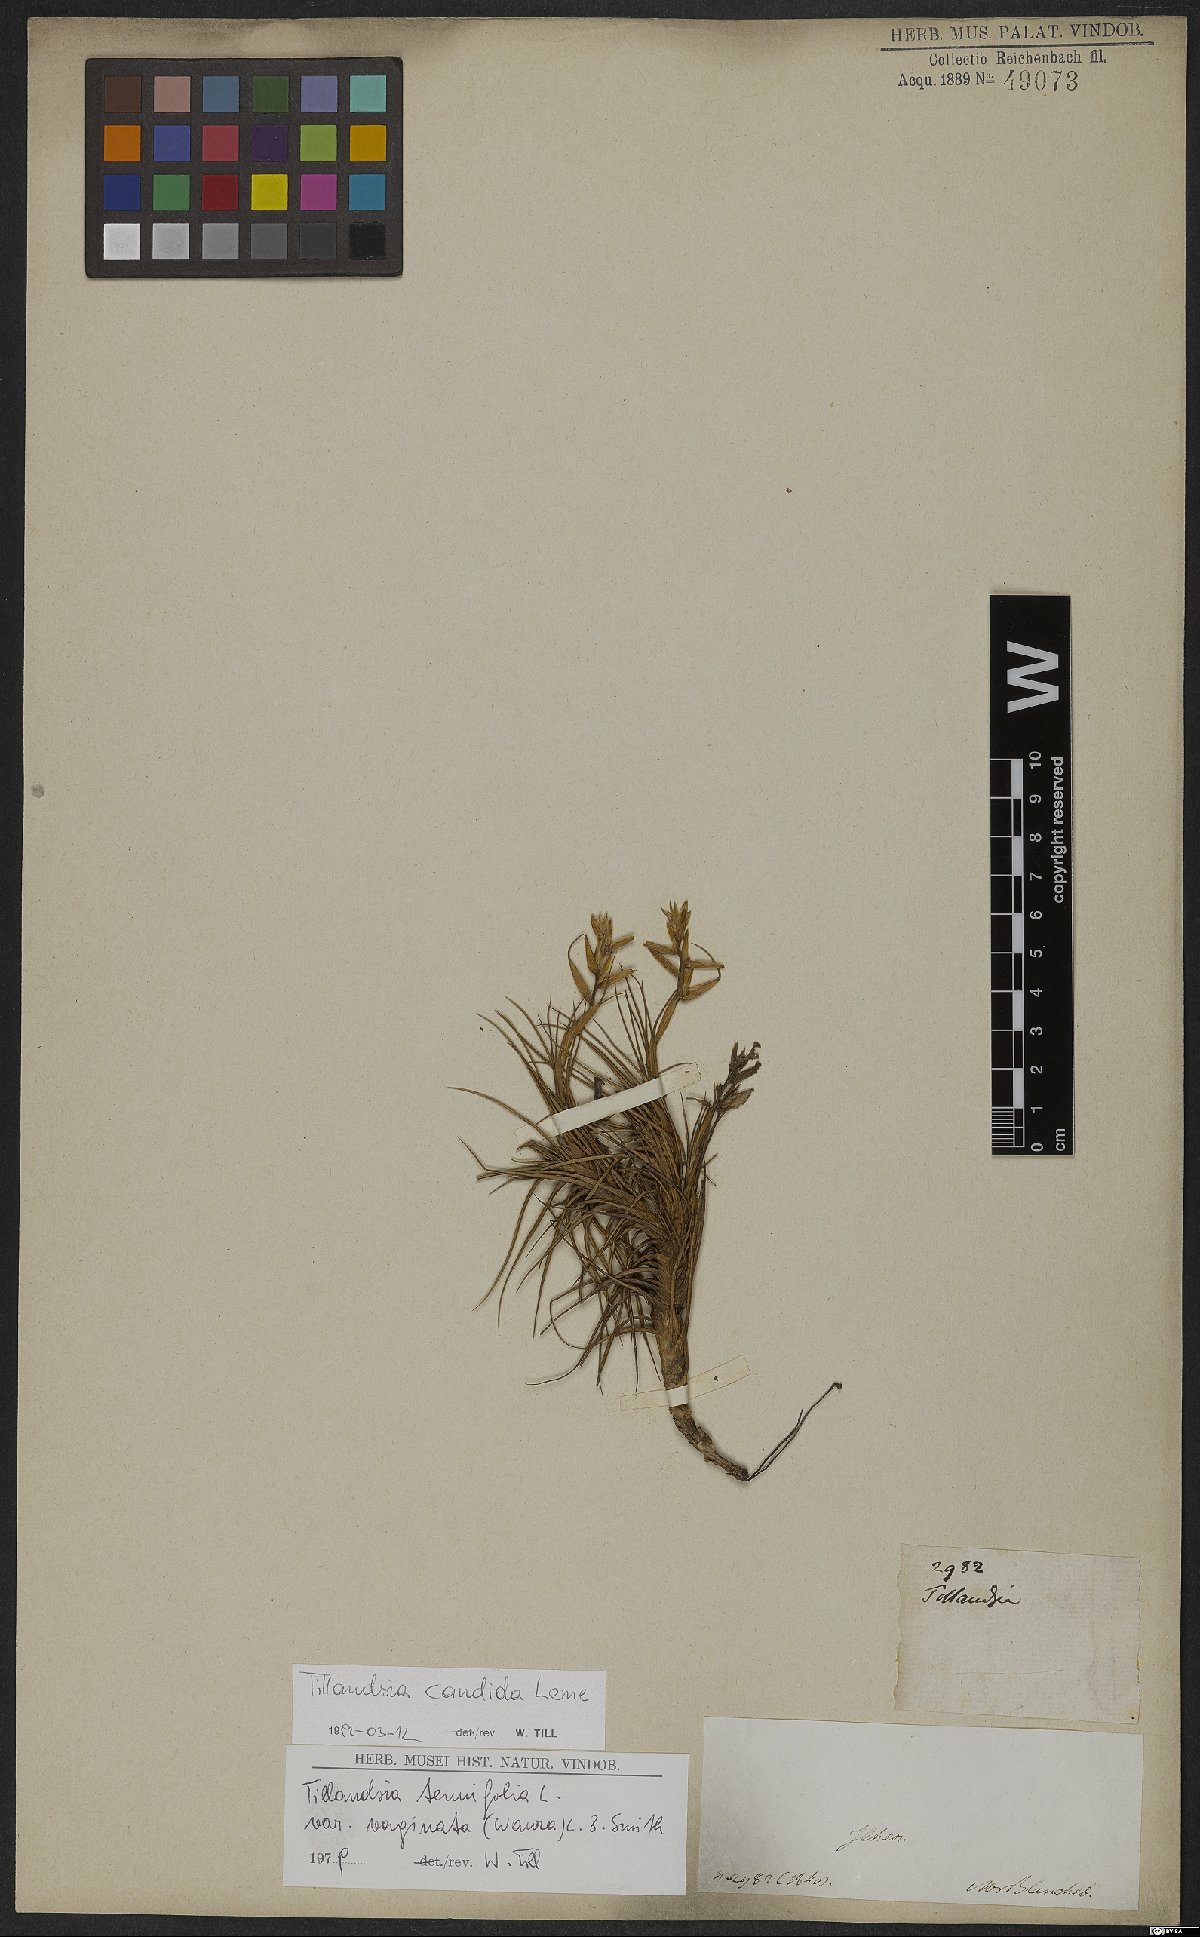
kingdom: Plantae
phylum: Tracheophyta
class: Liliopsida
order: Poales
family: Bromeliaceae
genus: Tillandsia
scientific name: Tillandsia candida
